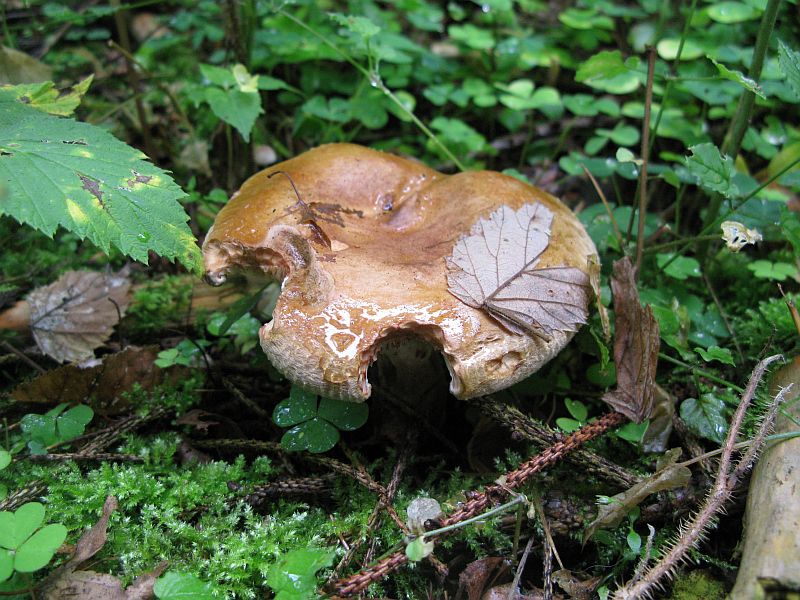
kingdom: Fungi
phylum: Basidiomycota
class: Agaricomycetes
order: Boletales
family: Paxillaceae
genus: Paxillus
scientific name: Paxillus involutus
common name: almindelig netbladhat
